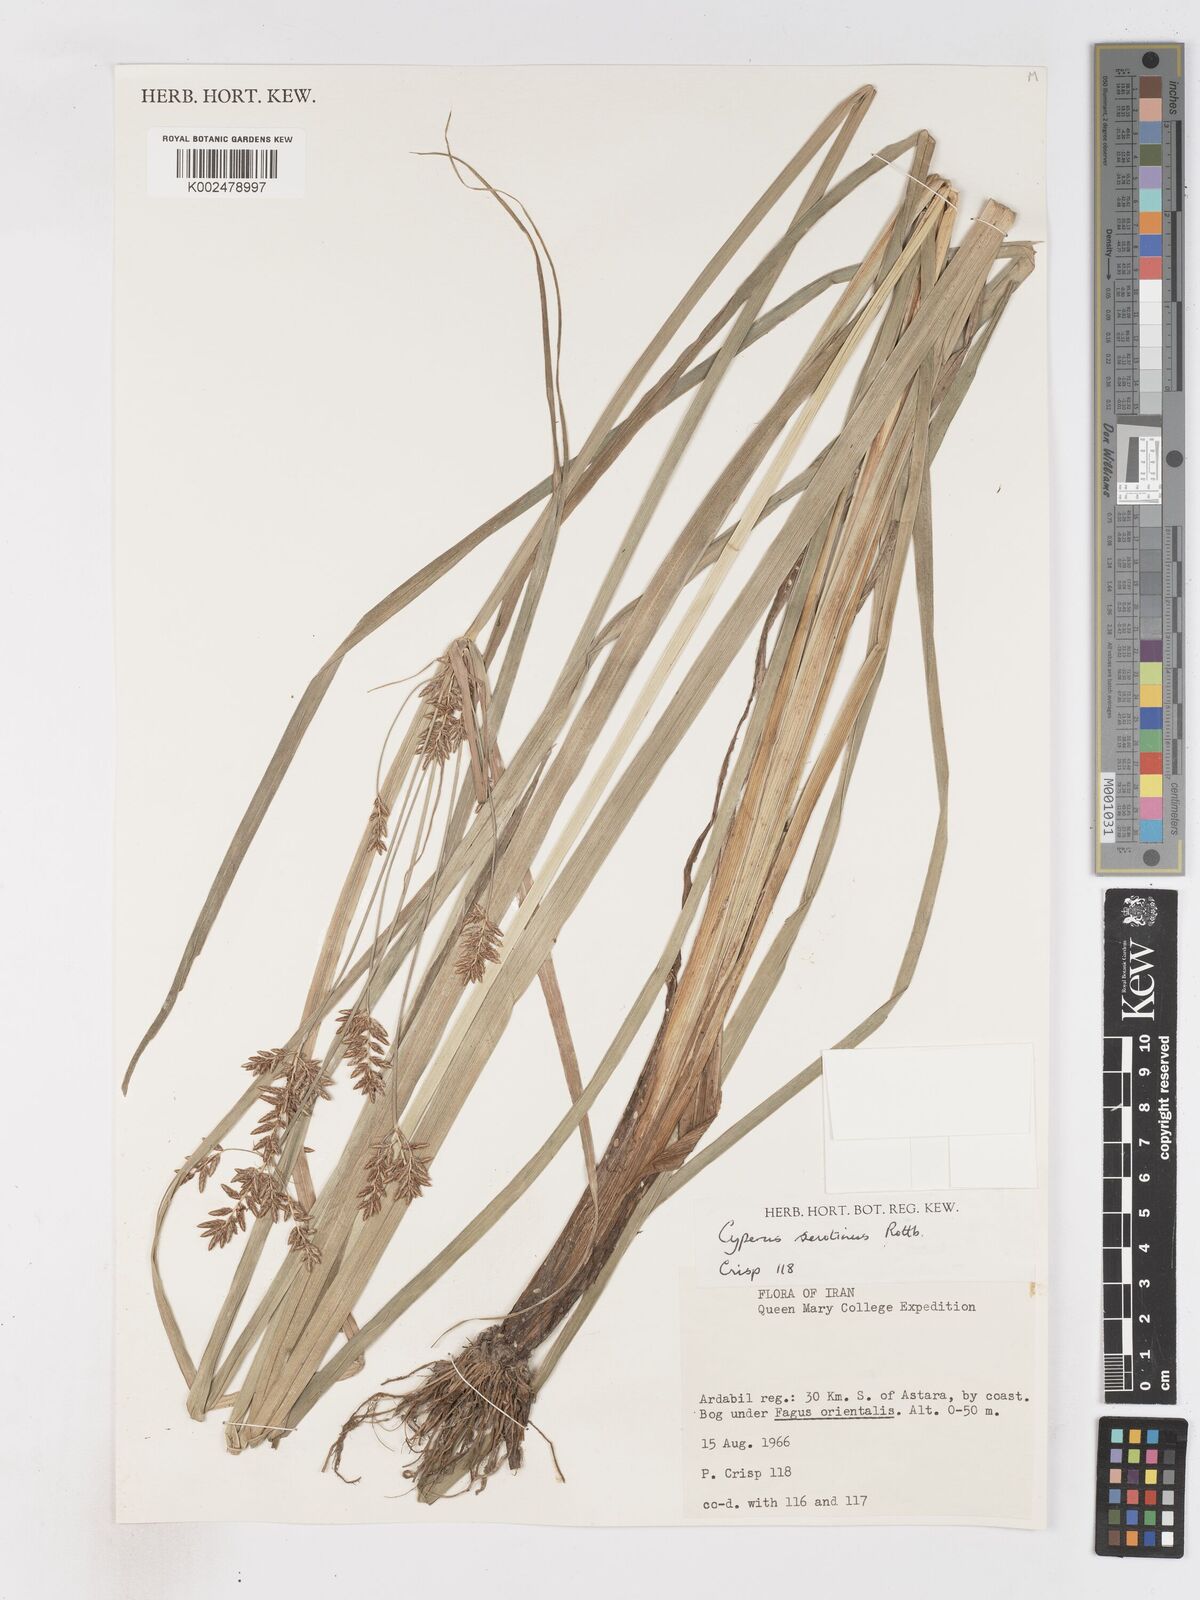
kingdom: Plantae
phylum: Tracheophyta
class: Liliopsida
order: Poales
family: Cyperaceae
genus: Cyperus
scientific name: Cyperus serotinus
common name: Tidalmarsh flatsedge
